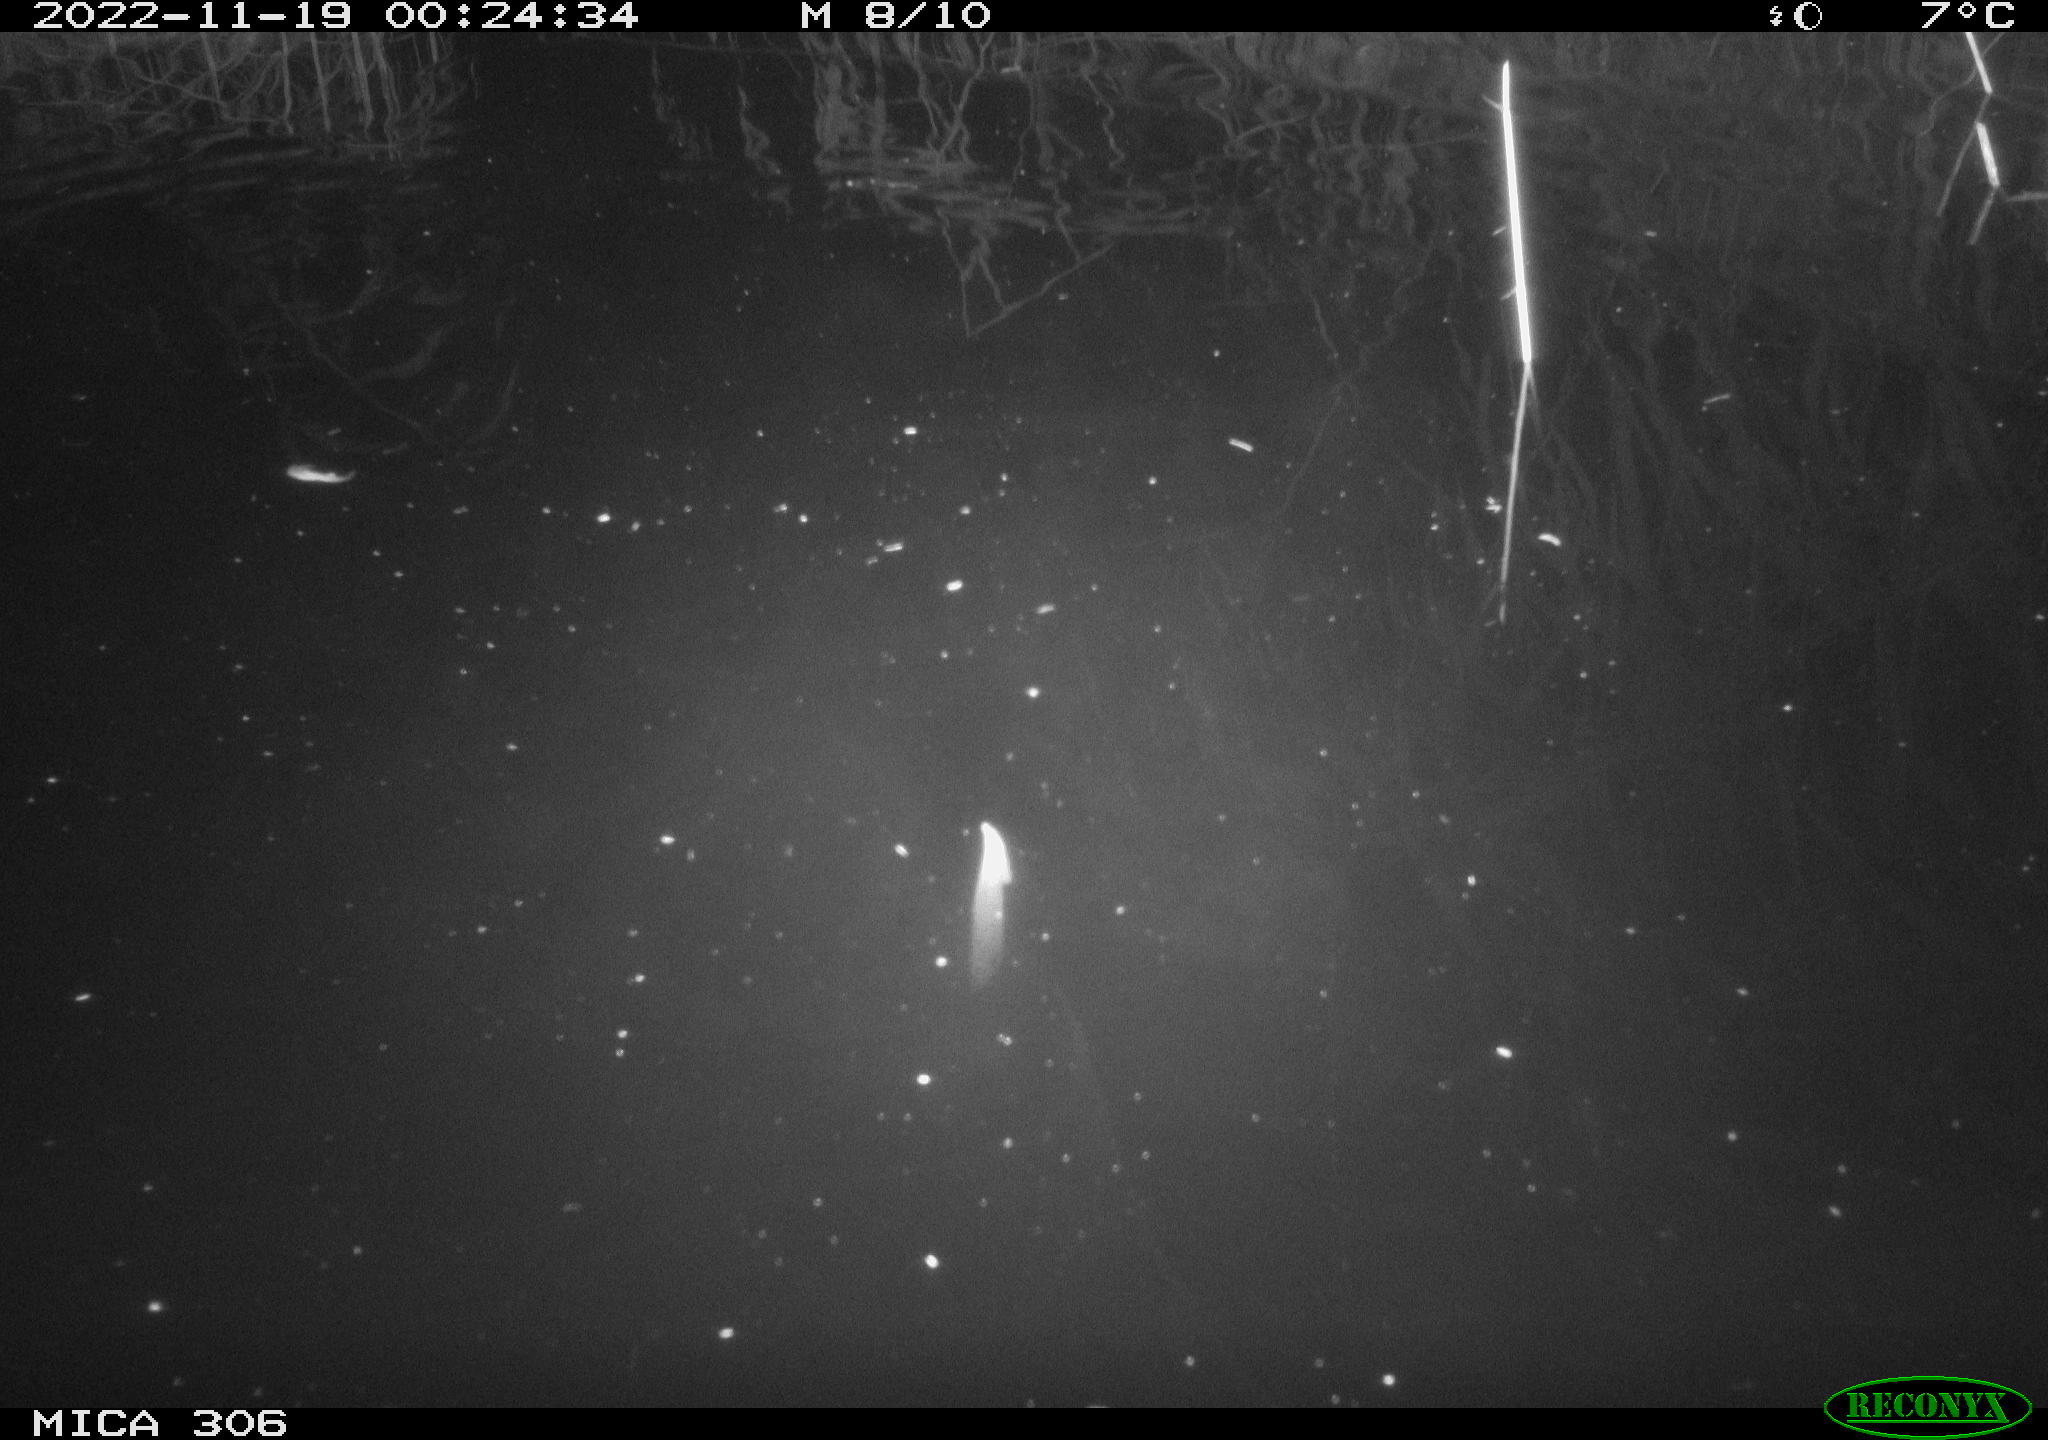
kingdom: Animalia
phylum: Chordata
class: Mammalia
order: Rodentia
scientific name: Rodentia
